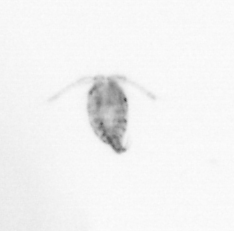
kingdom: Animalia
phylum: Arthropoda
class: Copepoda
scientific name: Copepoda
